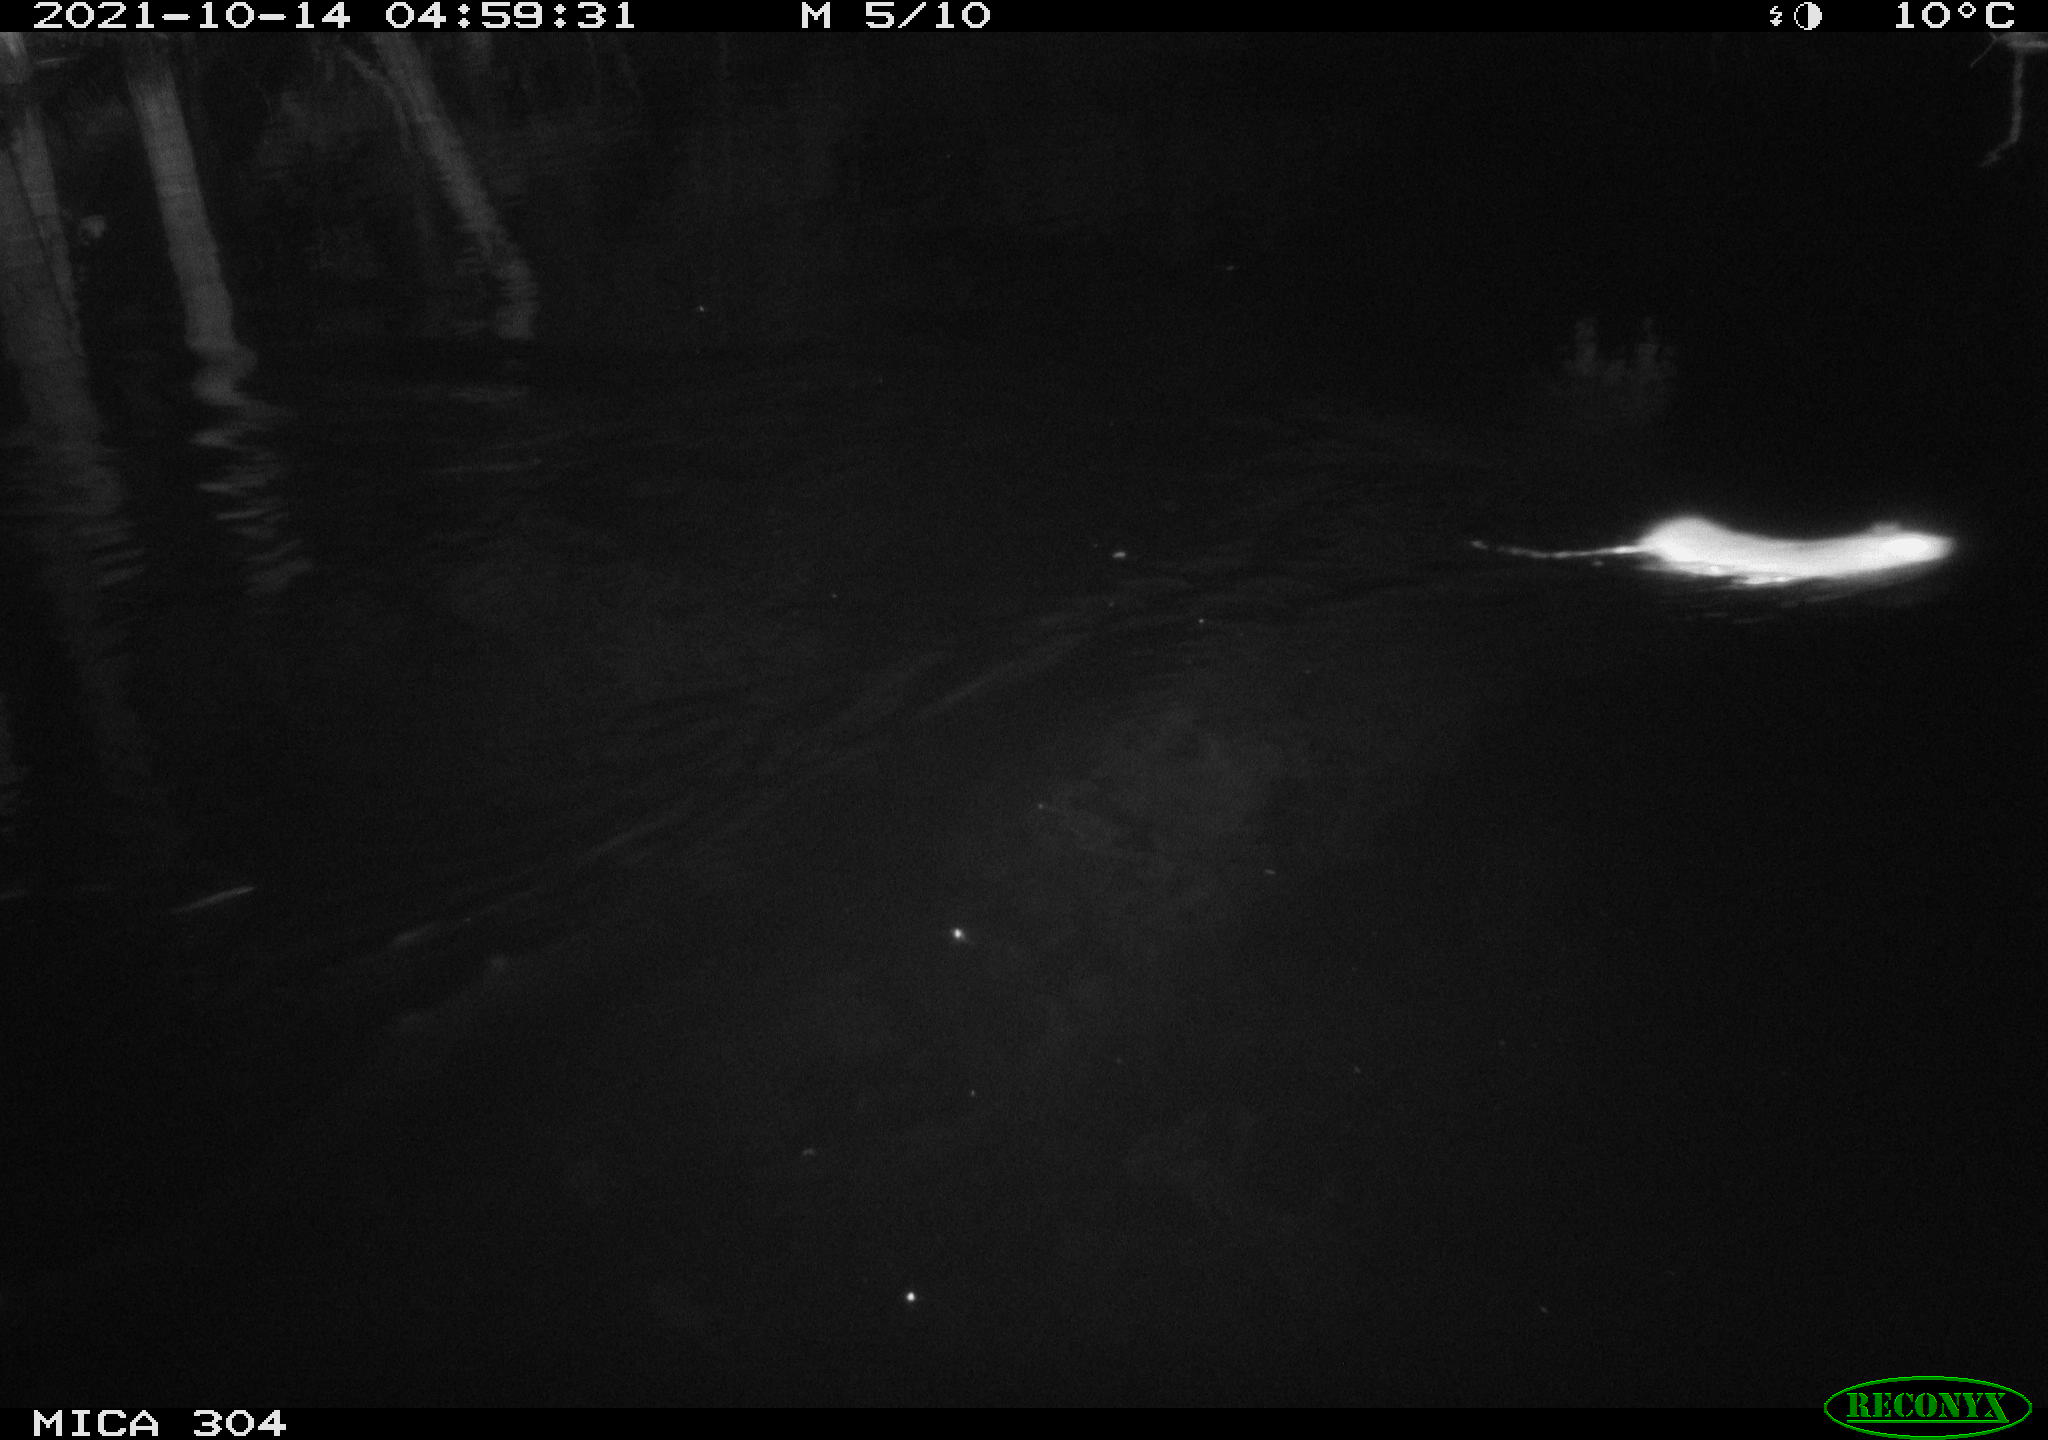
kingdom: Animalia
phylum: Chordata
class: Mammalia
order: Rodentia
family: Muridae
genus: Rattus
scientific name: Rattus norvegicus
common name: Brown rat
